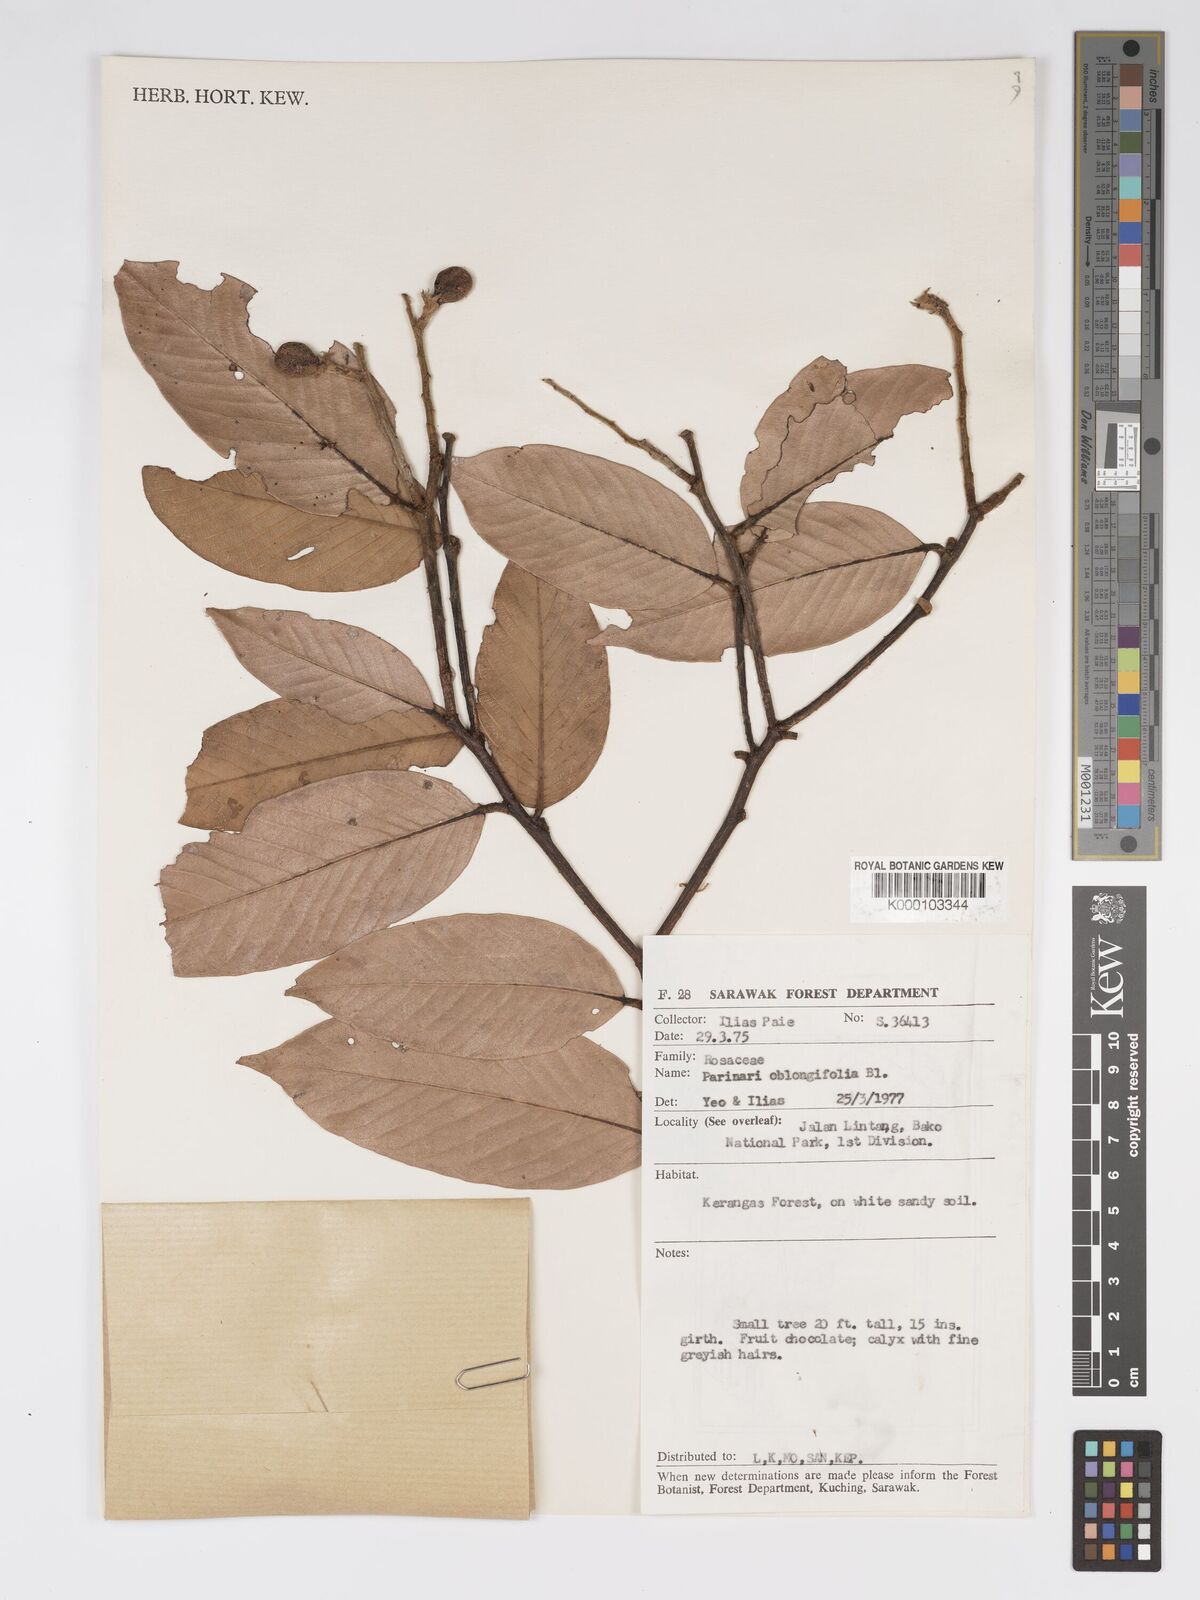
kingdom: Plantae
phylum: Tracheophyta
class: Magnoliopsida
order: Malpighiales
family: Chrysobalanaceae
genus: Parinari
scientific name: Parinari oblongifolia
